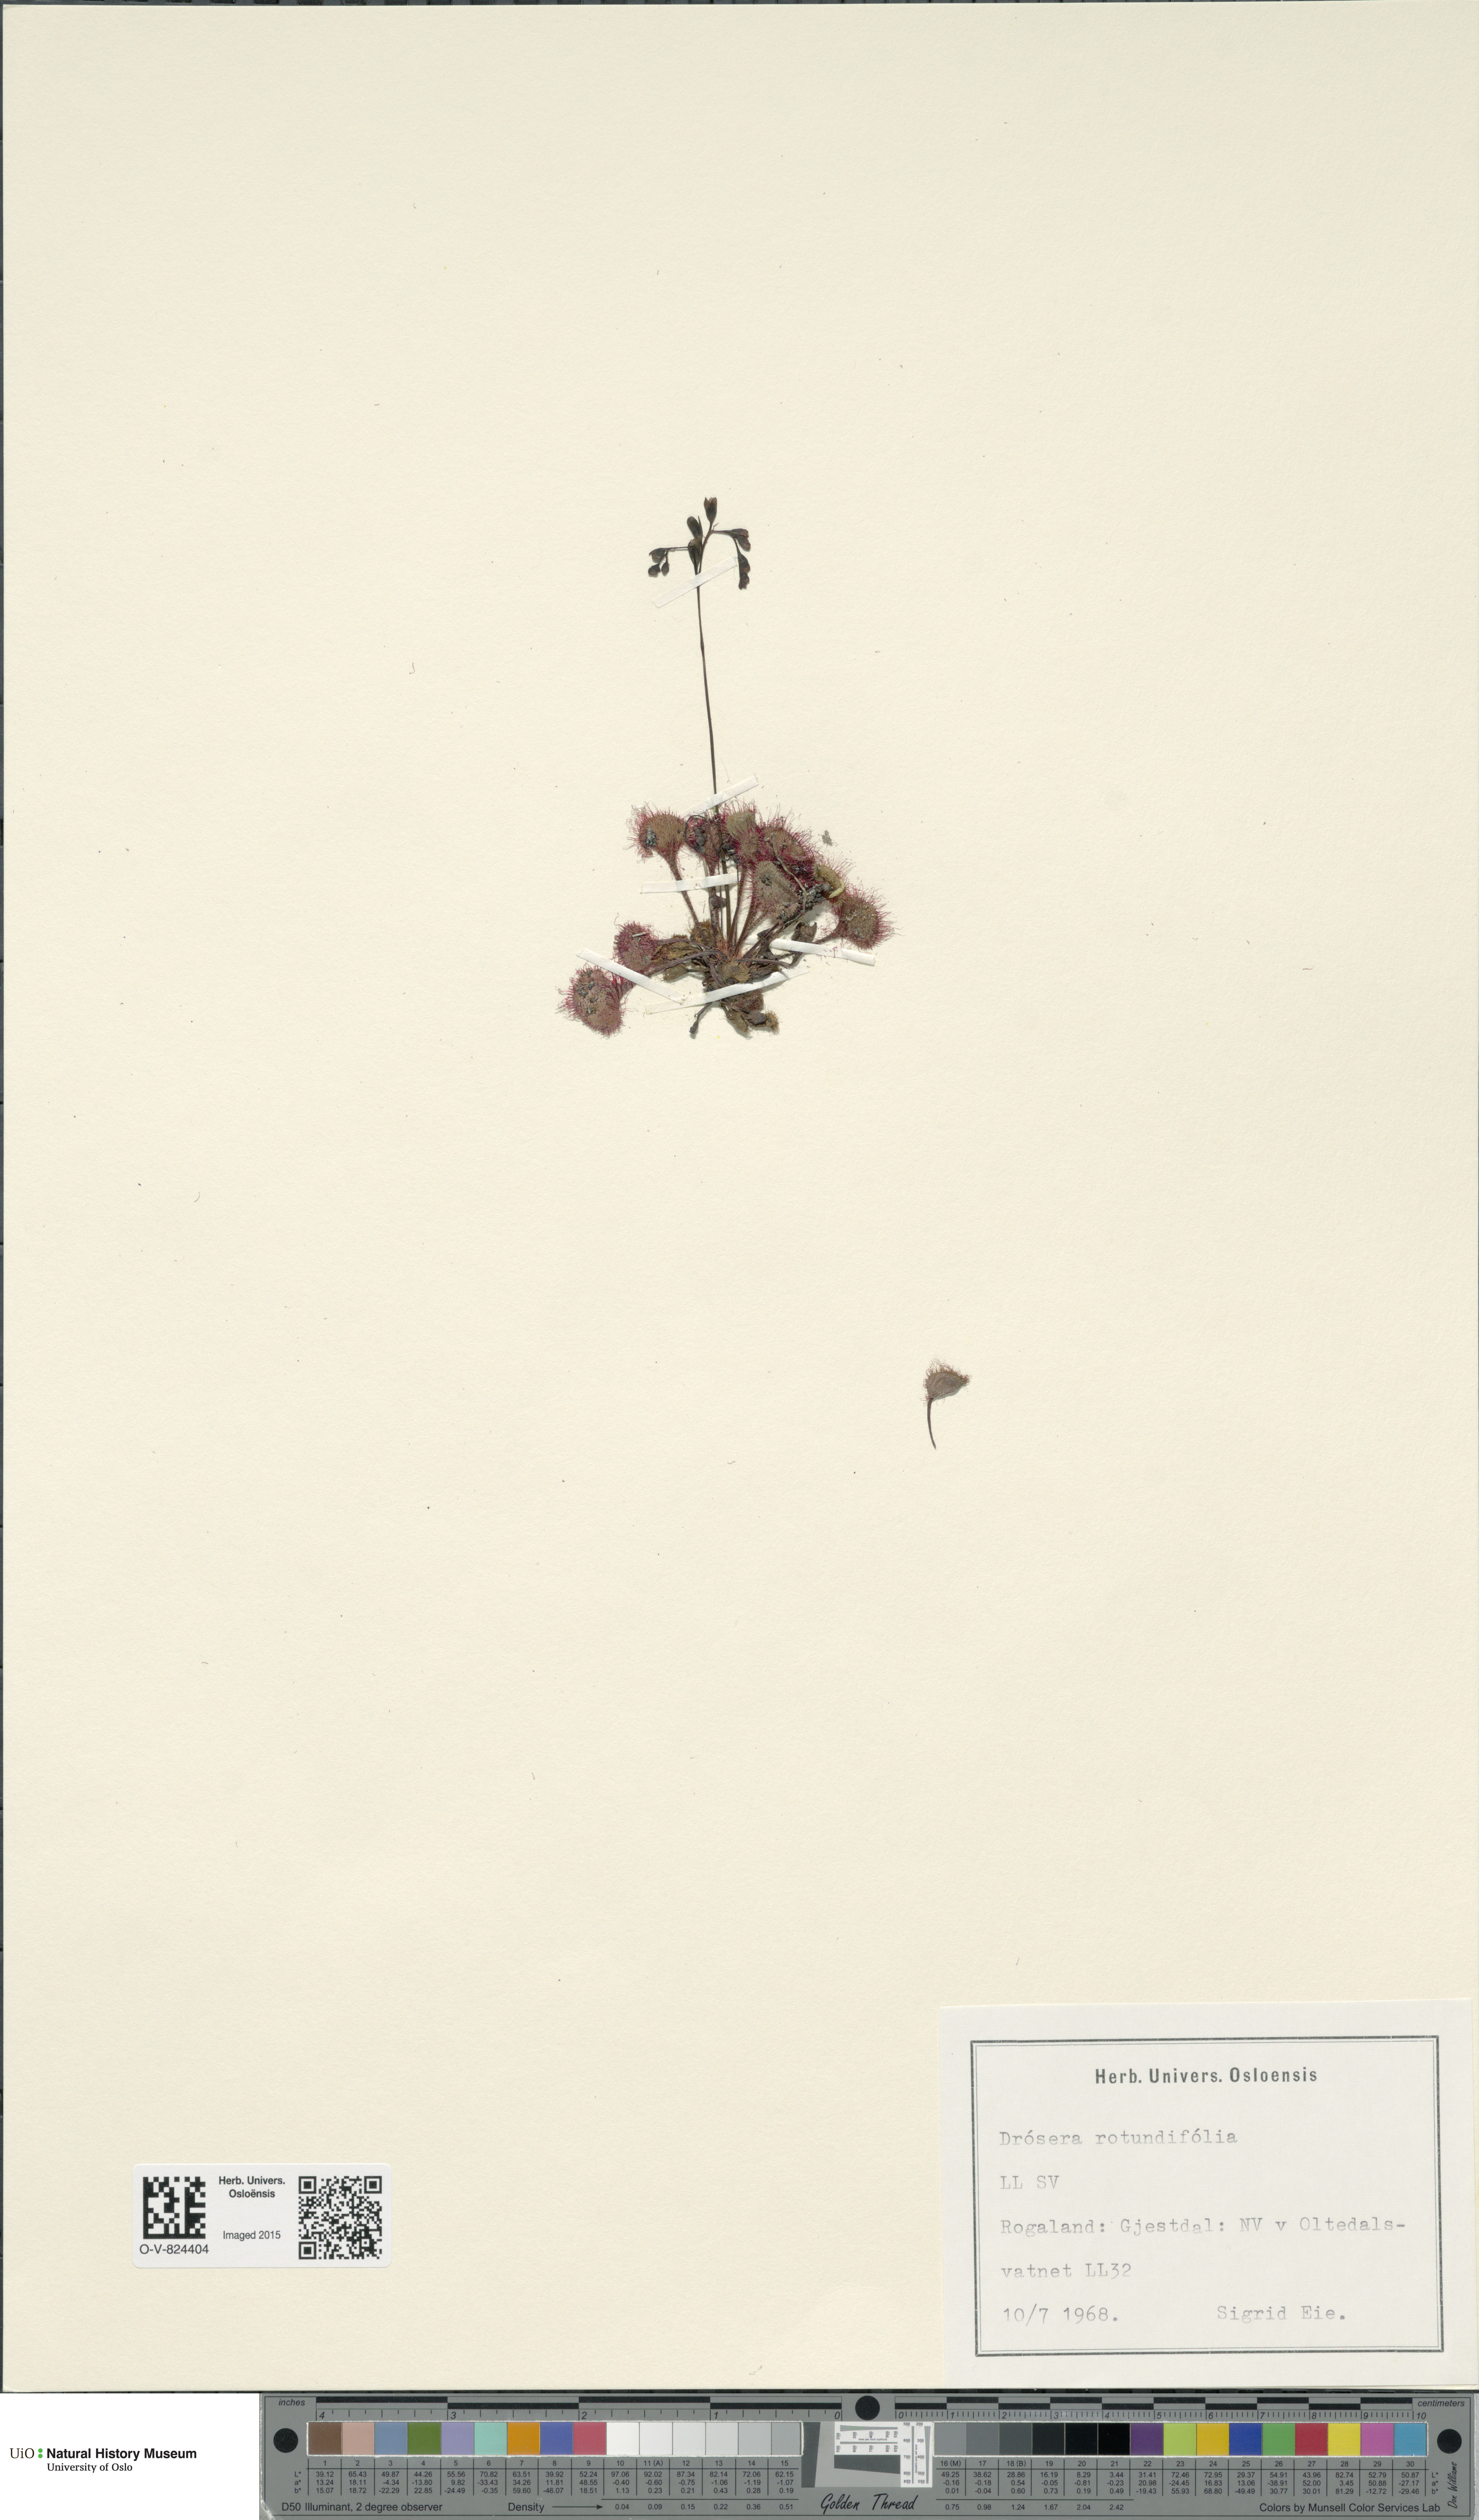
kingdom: Plantae
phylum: Tracheophyta
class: Magnoliopsida
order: Caryophyllales
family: Droseraceae
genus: Drosera
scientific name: Drosera rotundifolia
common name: Round-leaved sundew
